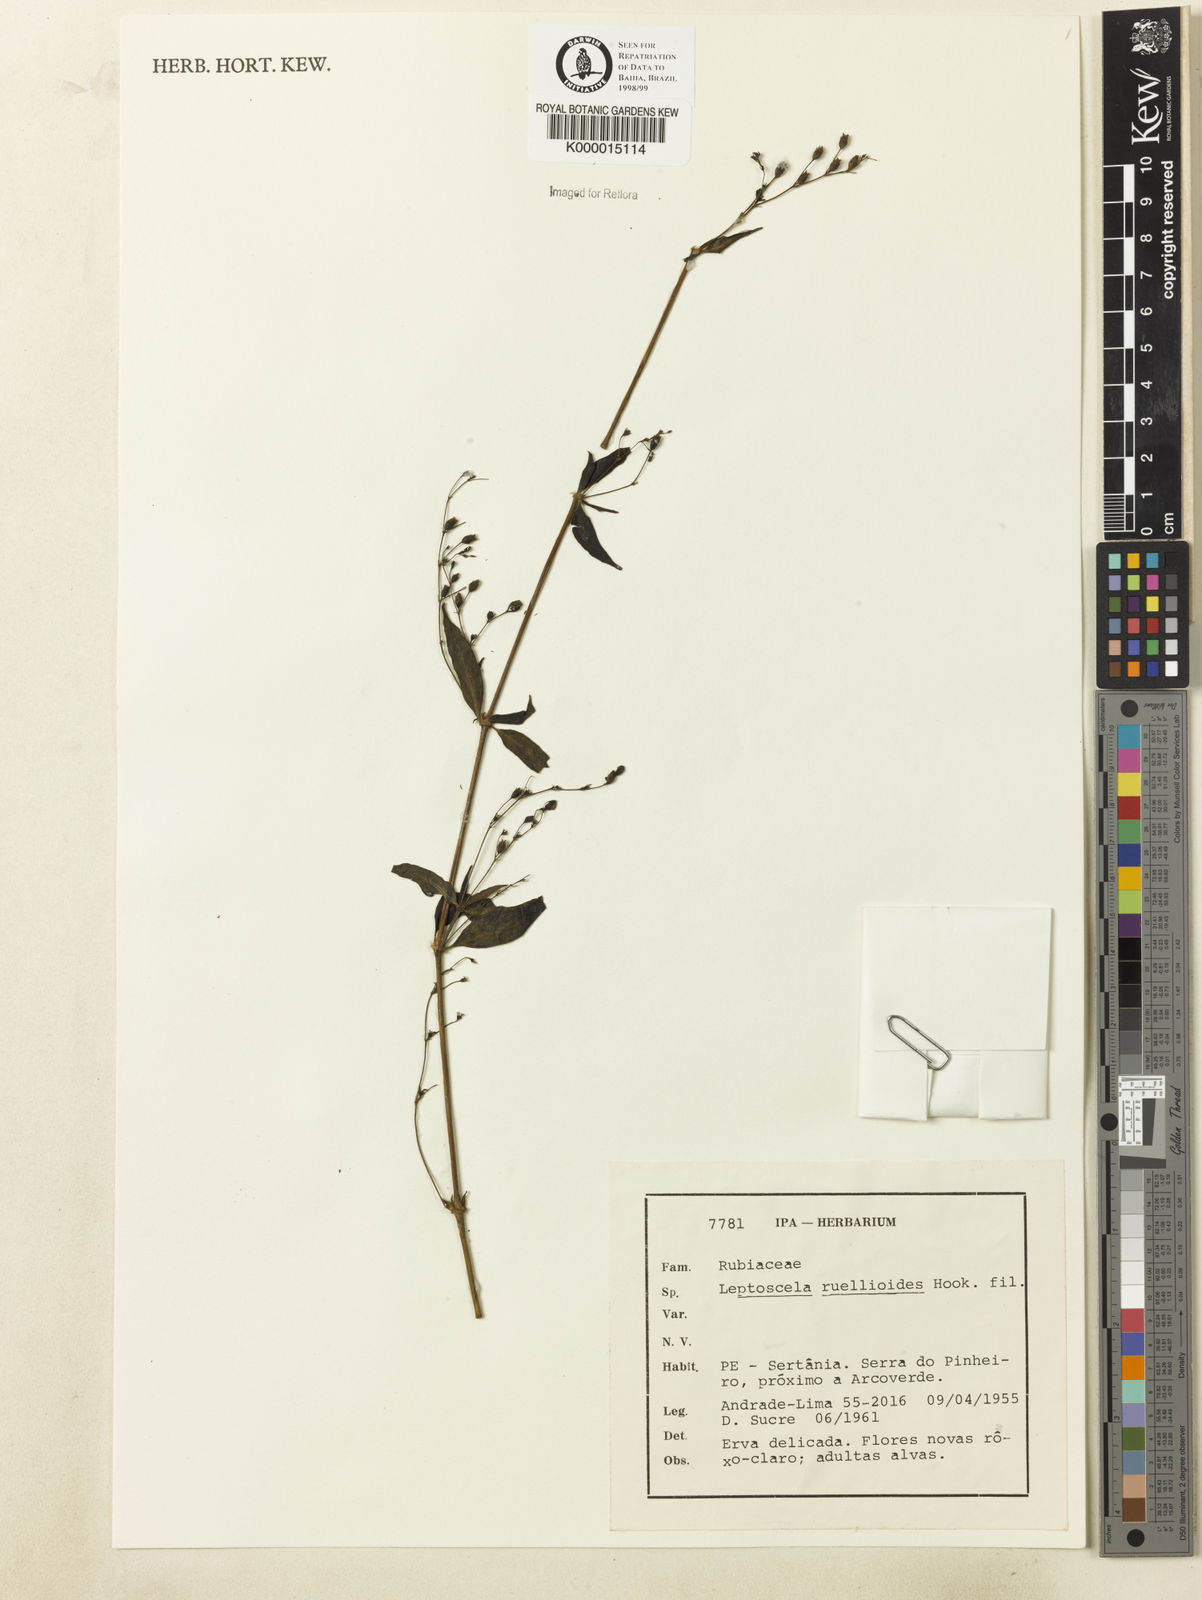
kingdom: Plantae
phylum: Tracheophyta
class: Magnoliopsida
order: Gentianales
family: Rubiaceae
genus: Leptoscela
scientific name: Leptoscela
